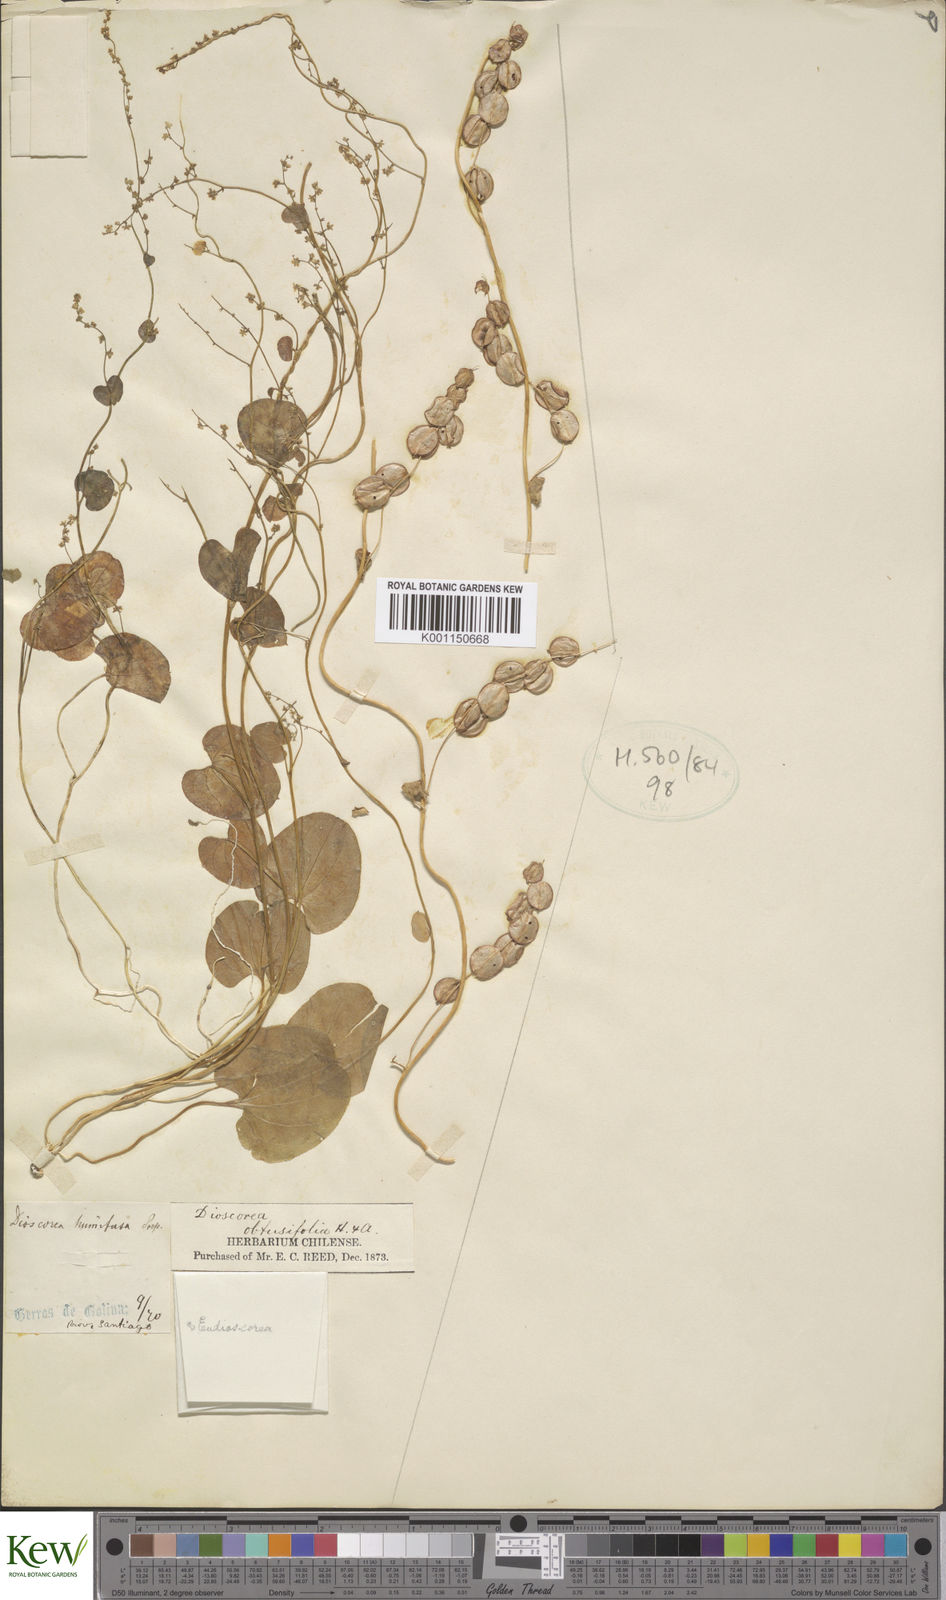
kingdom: Plantae
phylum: Tracheophyta
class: Liliopsida
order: Dioscoreales
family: Dioscoreaceae
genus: Dioscorea
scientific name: Dioscorea obtusifolia
